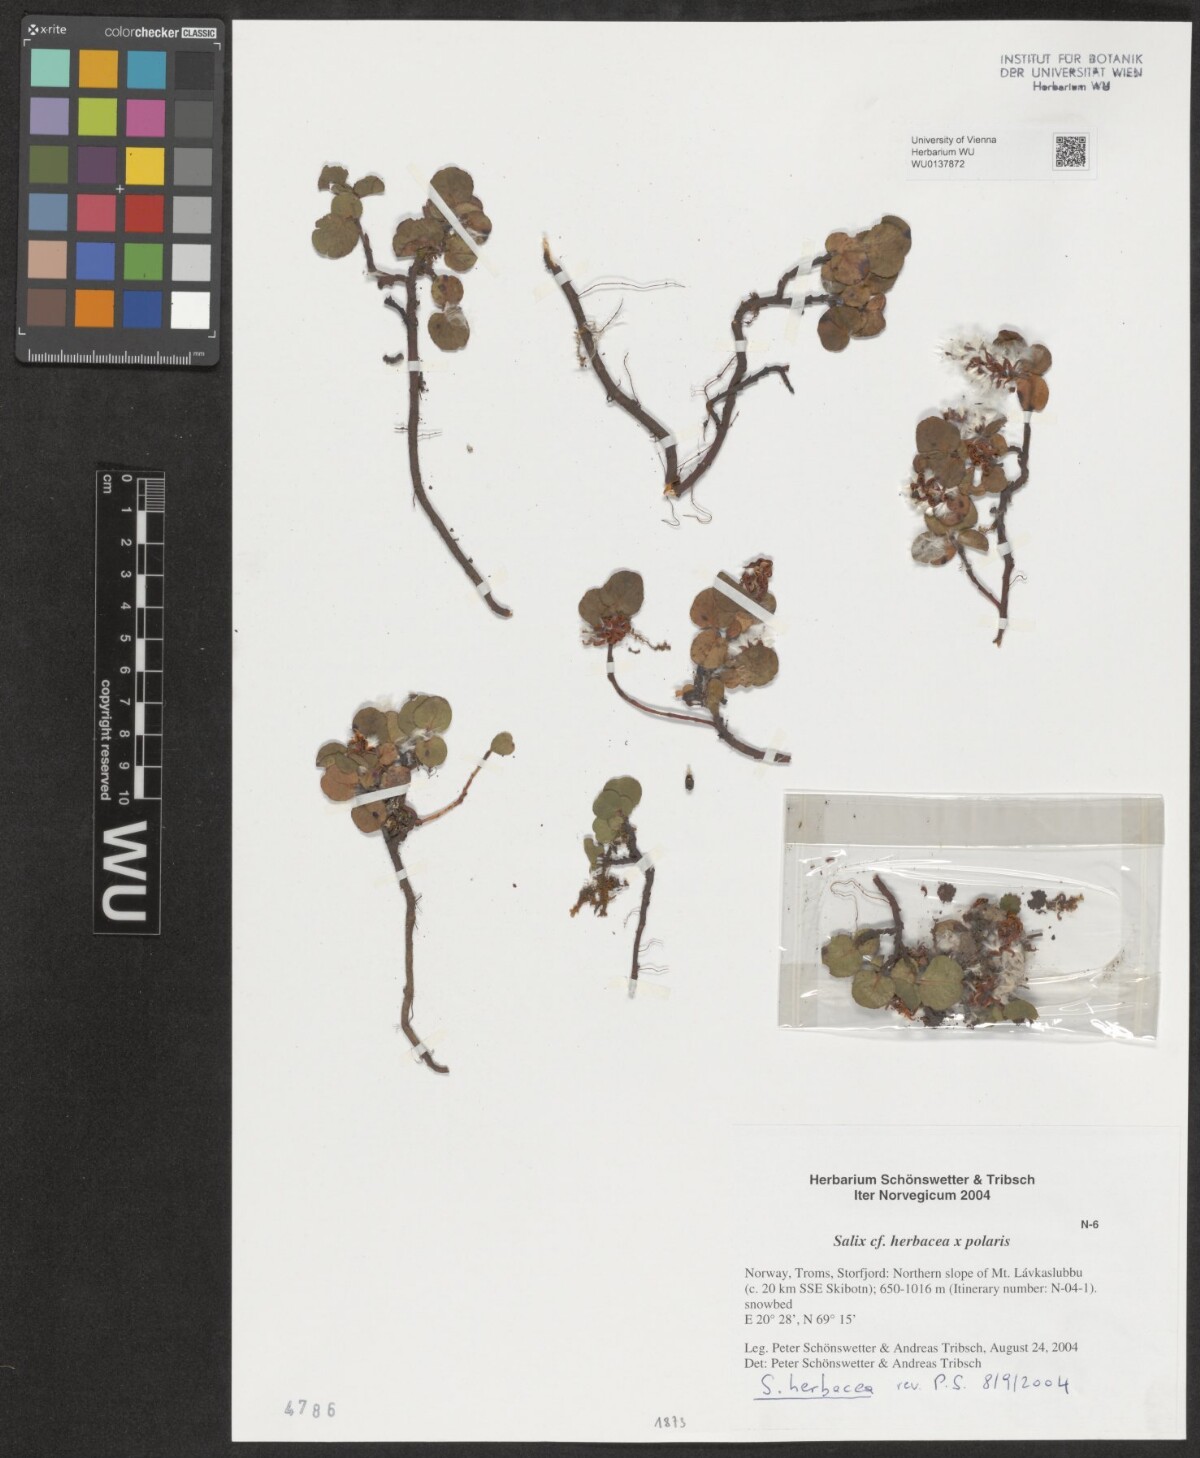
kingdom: Plantae
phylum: Tracheophyta
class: Magnoliopsida
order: Malpighiales
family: Salicaceae
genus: Salix
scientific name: Salix herbacea
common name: Dwarf willow
